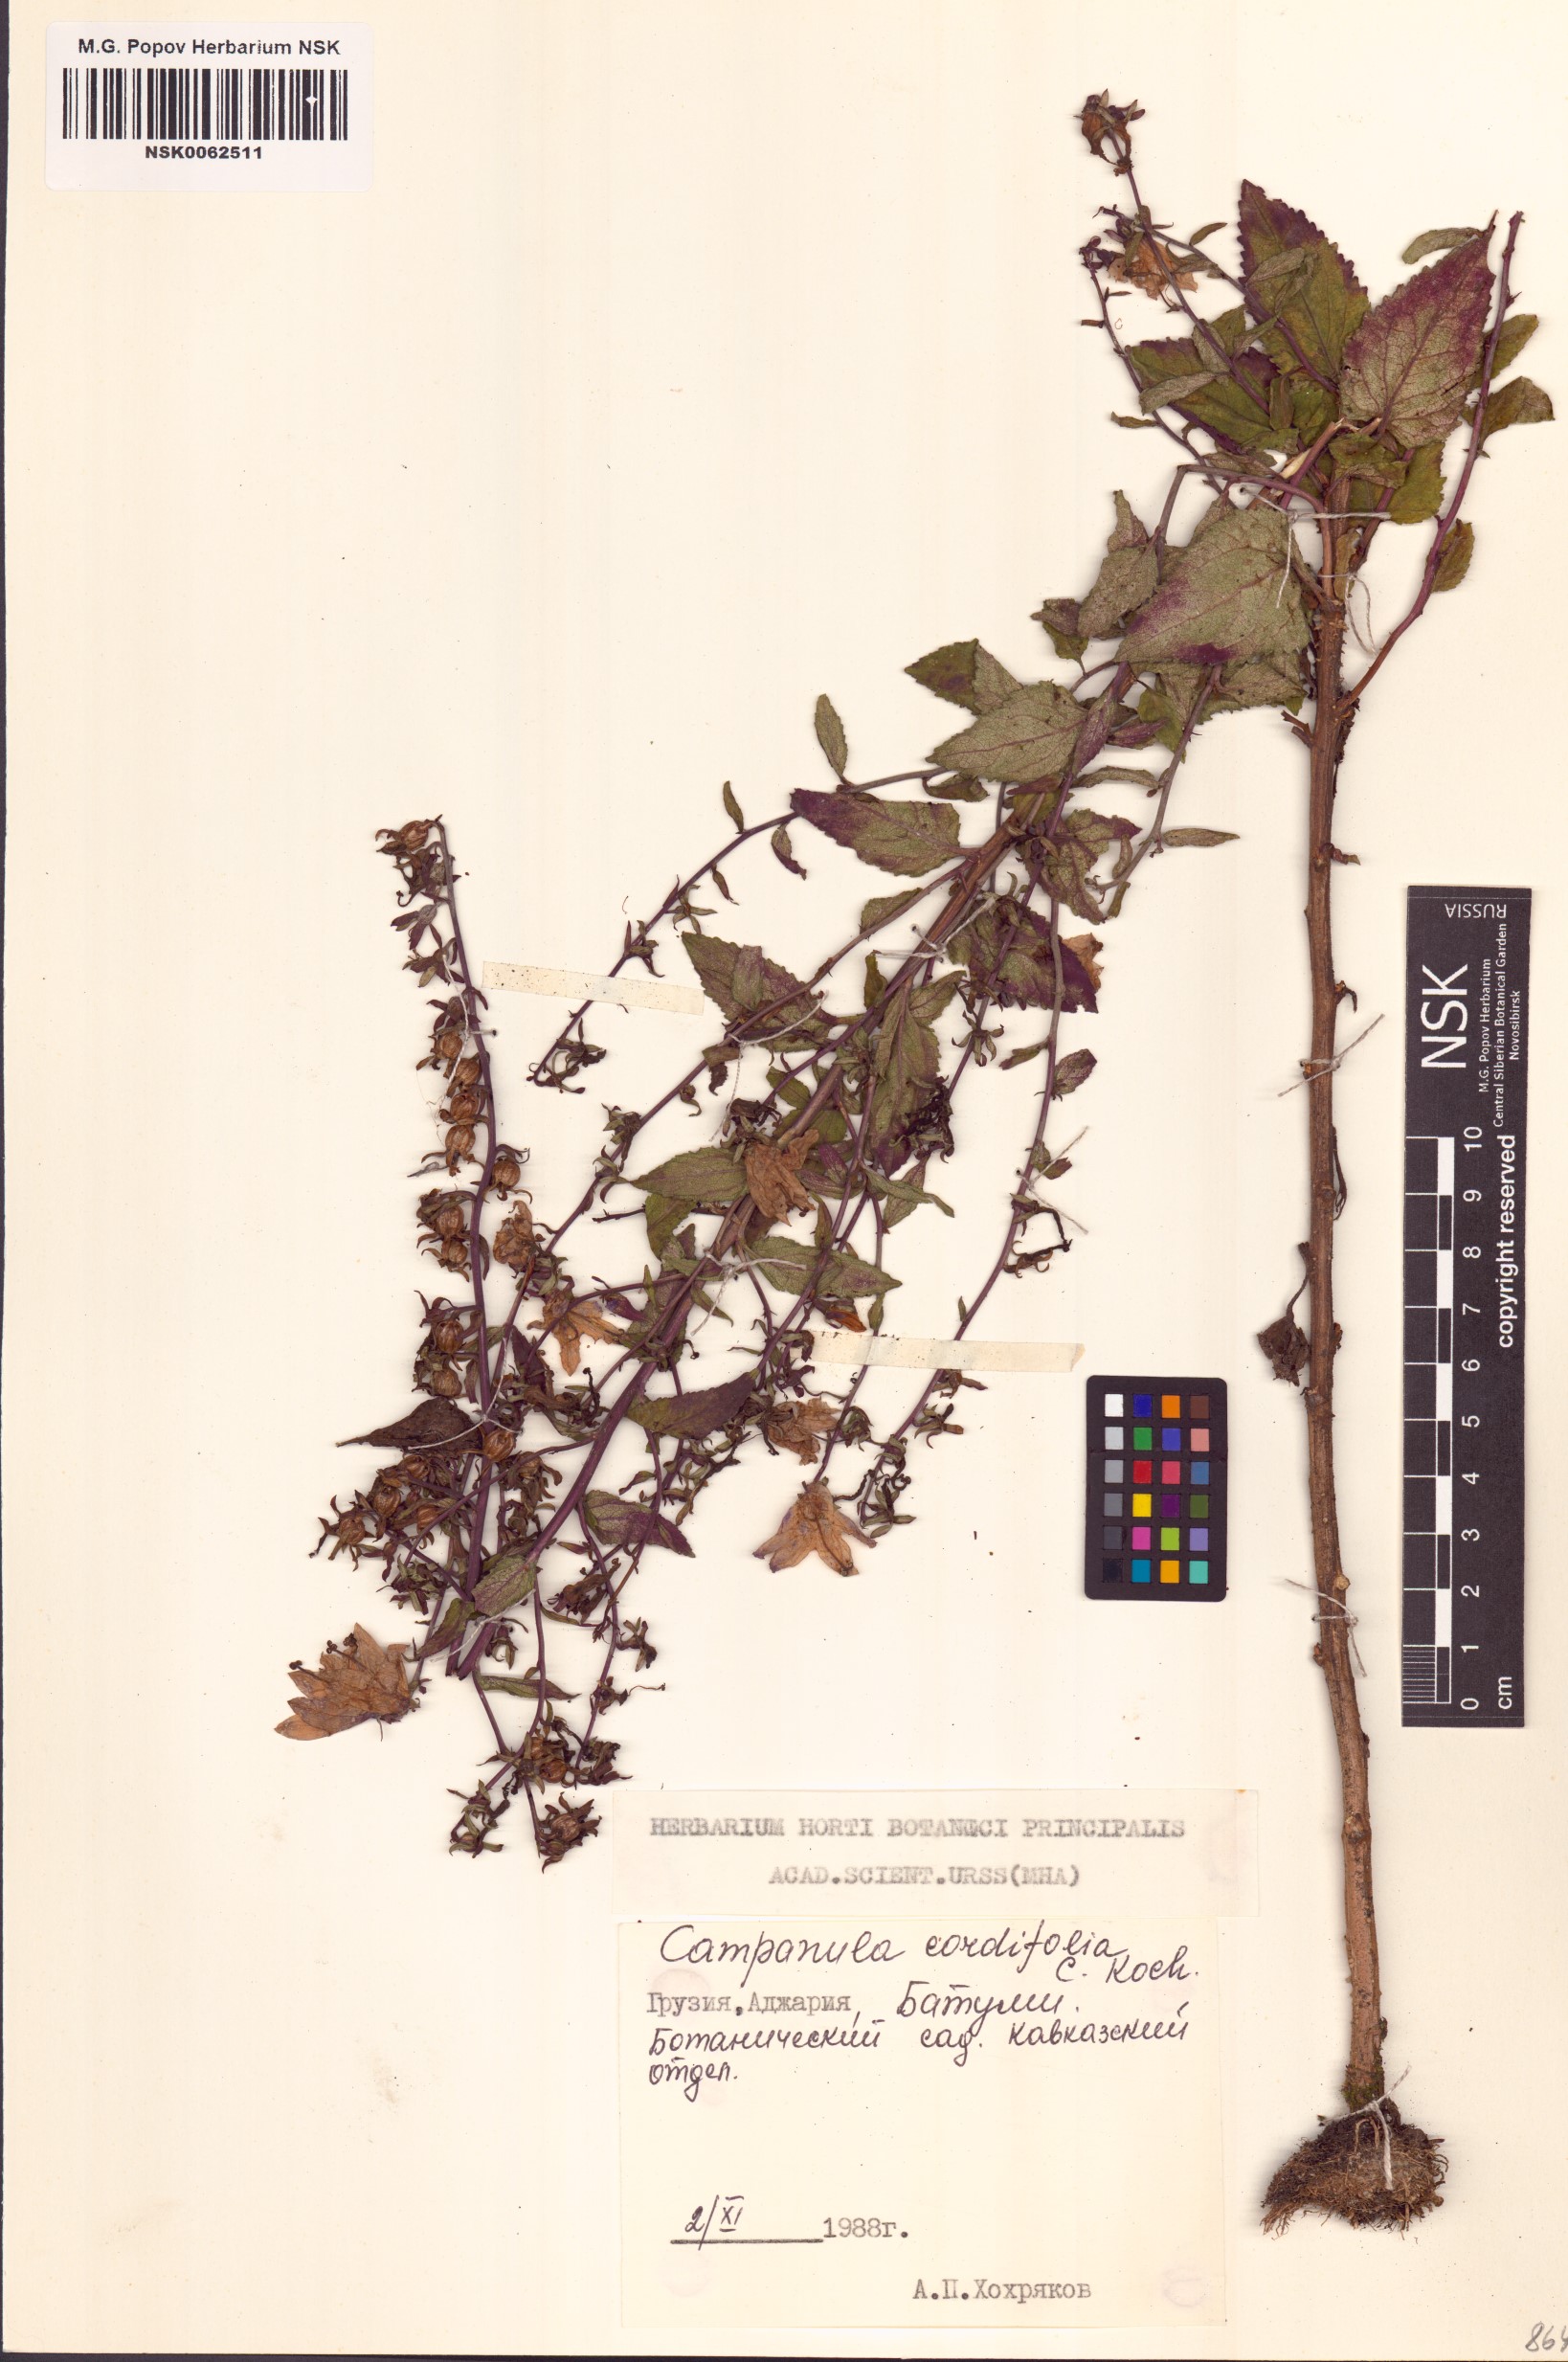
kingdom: Plantae
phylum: Tracheophyta
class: Magnoliopsida
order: Asterales
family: Campanulaceae
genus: Campanula
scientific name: Campanula rapunculoides
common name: Creeping bellflower
